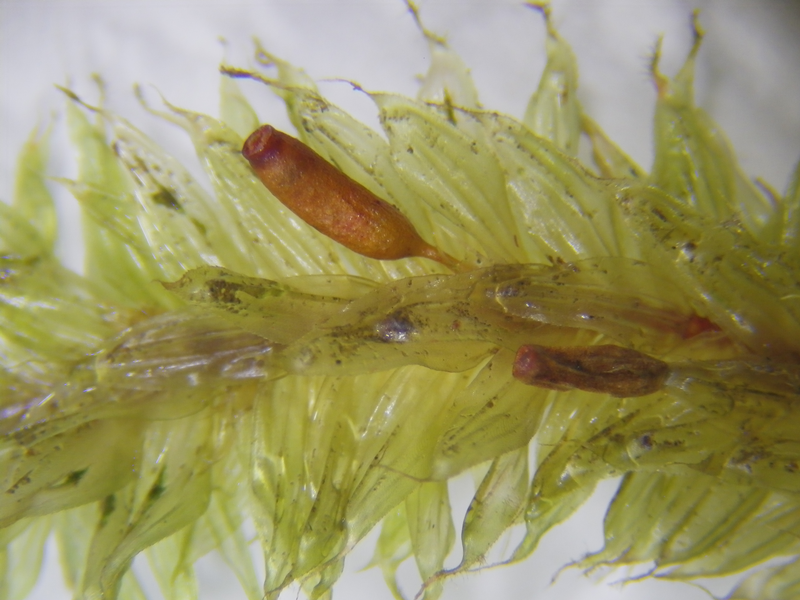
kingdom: Plantae
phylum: Bryophyta
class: Bryopsida
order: Ptychomniales
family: Ptychomniaceae
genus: Garovaglia
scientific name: Garovaglia elegans
